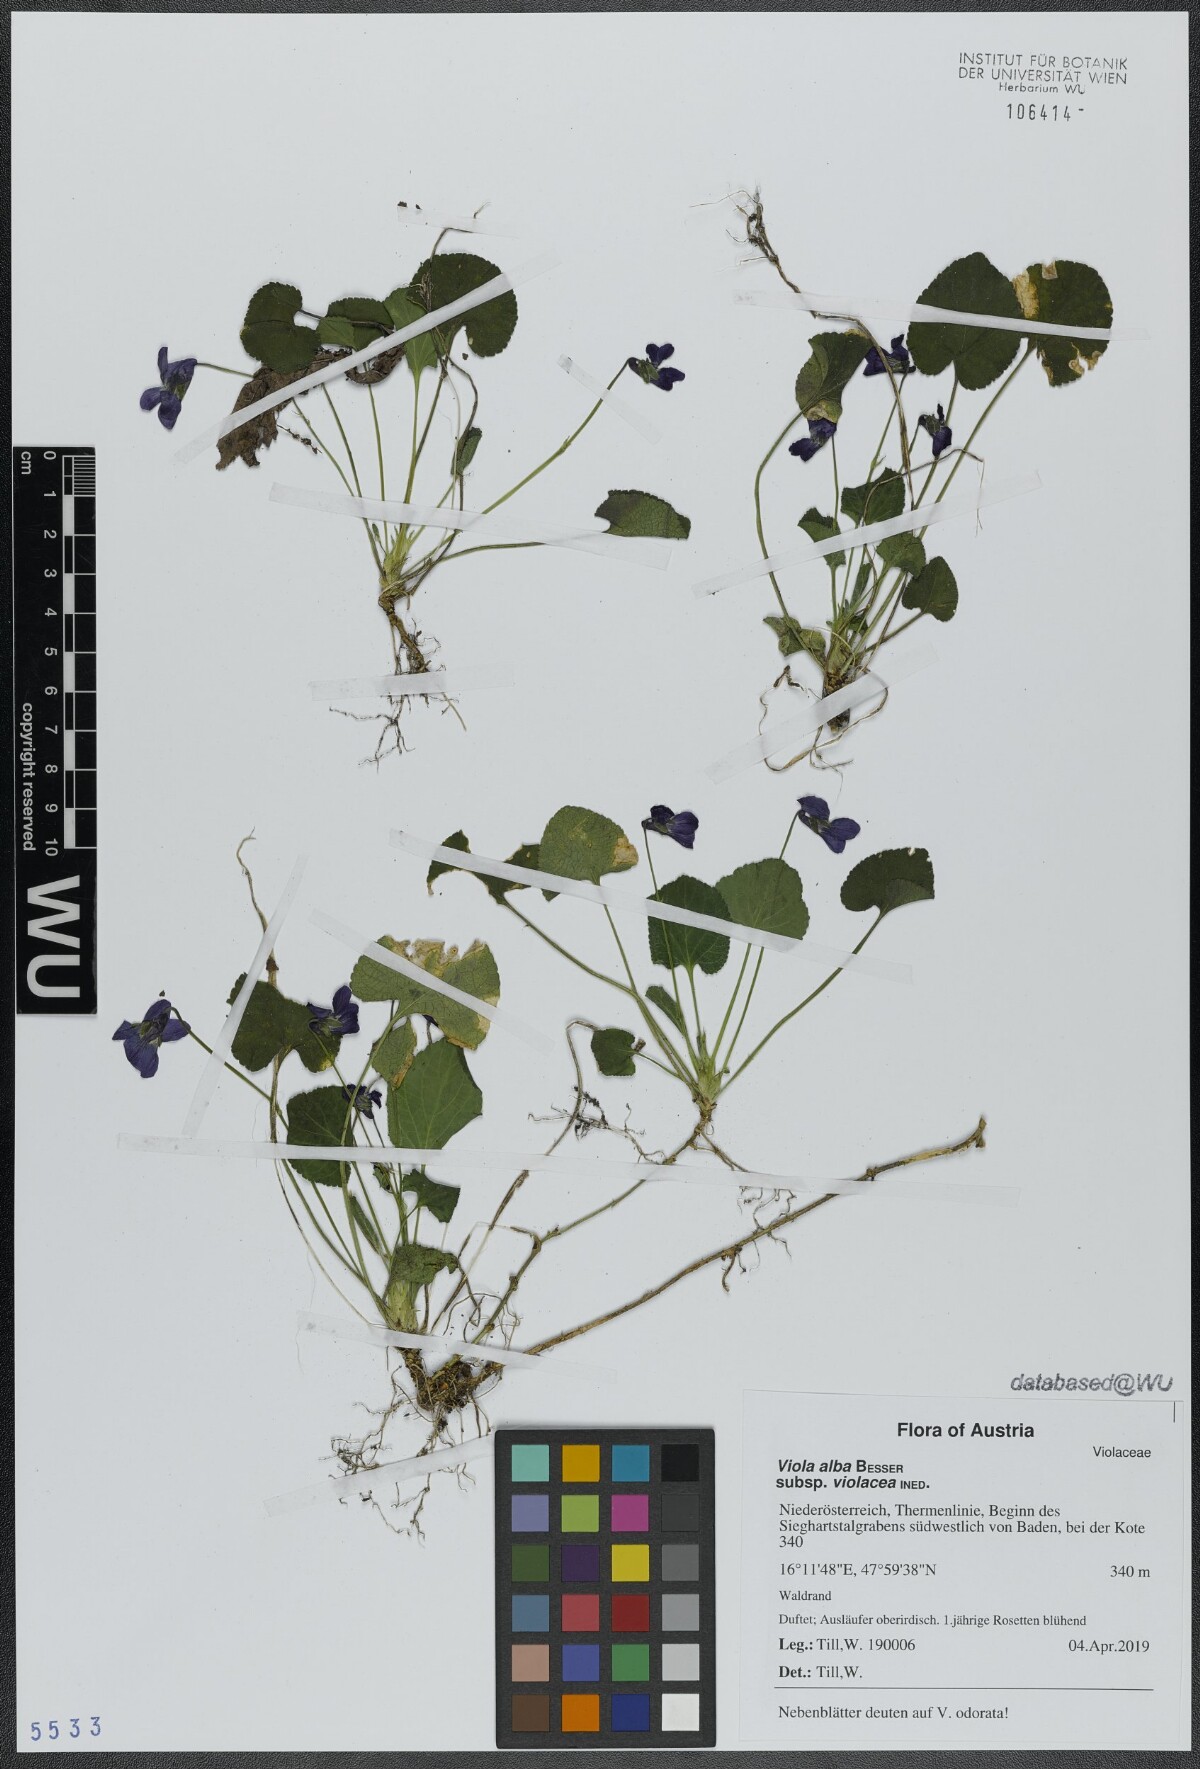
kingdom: Plantae
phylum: Tracheophyta
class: Magnoliopsida
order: Malpighiales
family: Violaceae
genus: Viola
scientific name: Viola alba
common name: White violet
